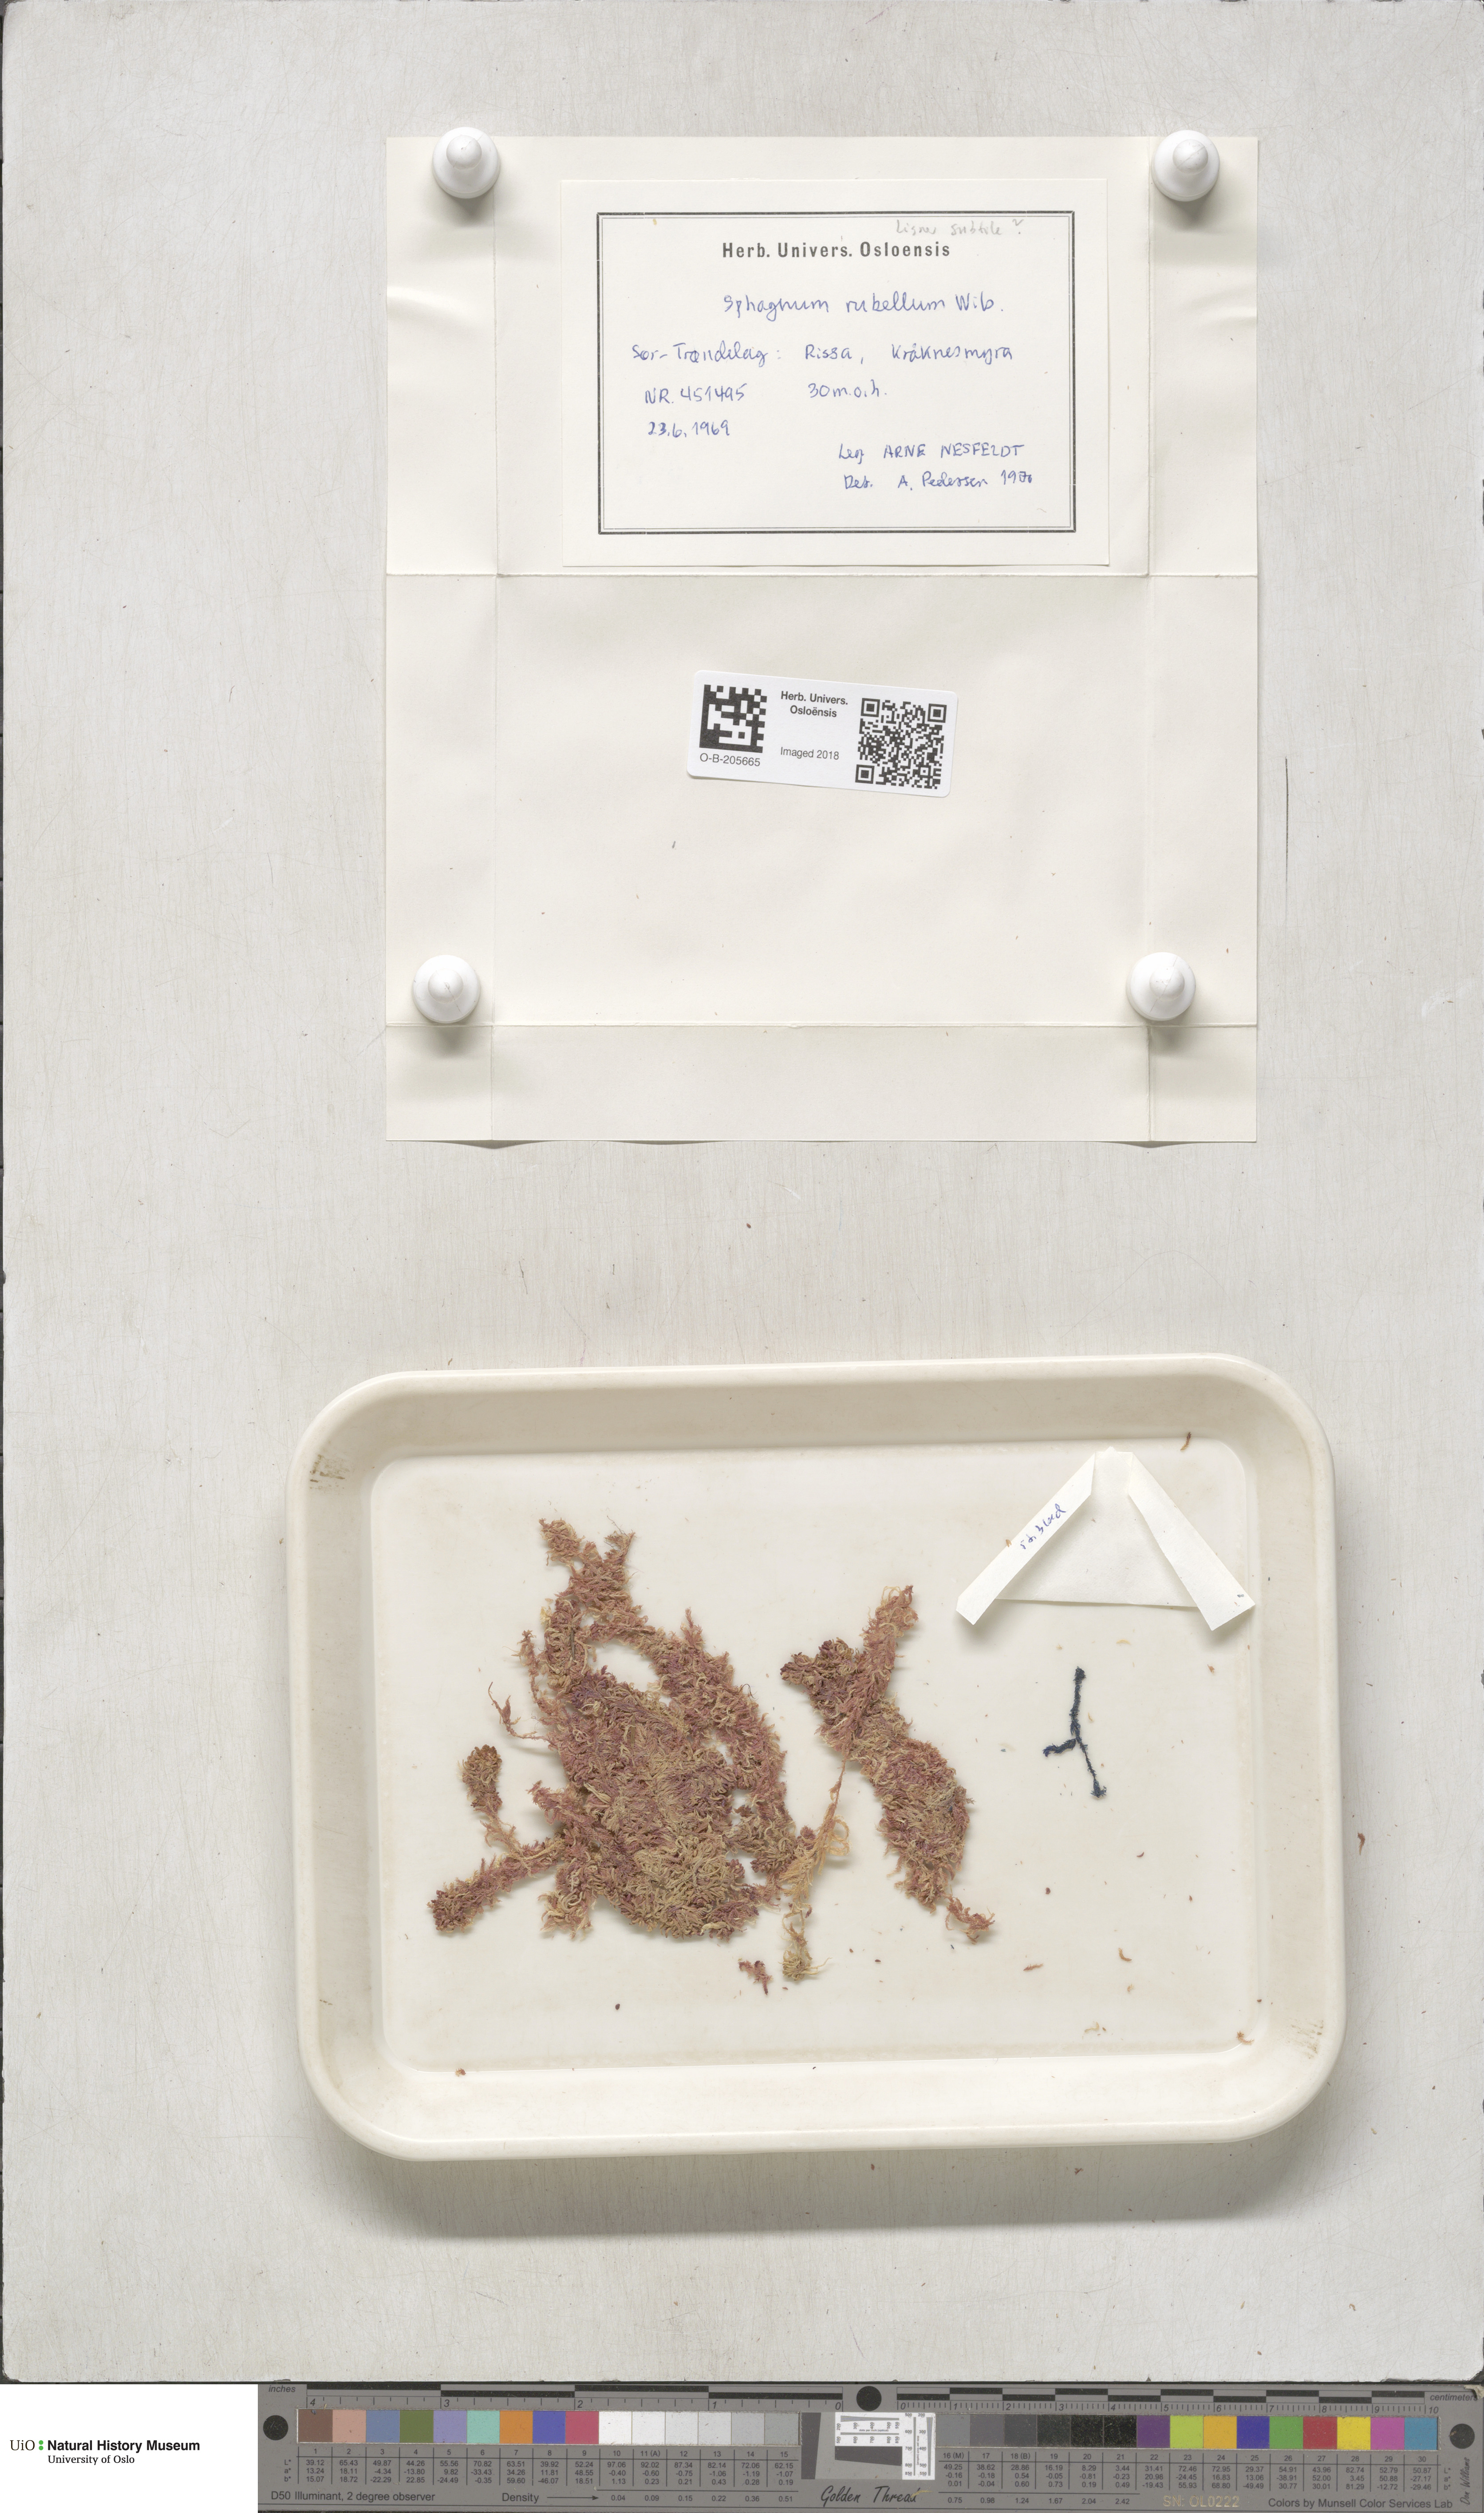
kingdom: Plantae
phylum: Bryophyta
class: Sphagnopsida
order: Sphagnales
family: Sphagnaceae
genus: Sphagnum
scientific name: Sphagnum rubellum
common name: Red peat moss
